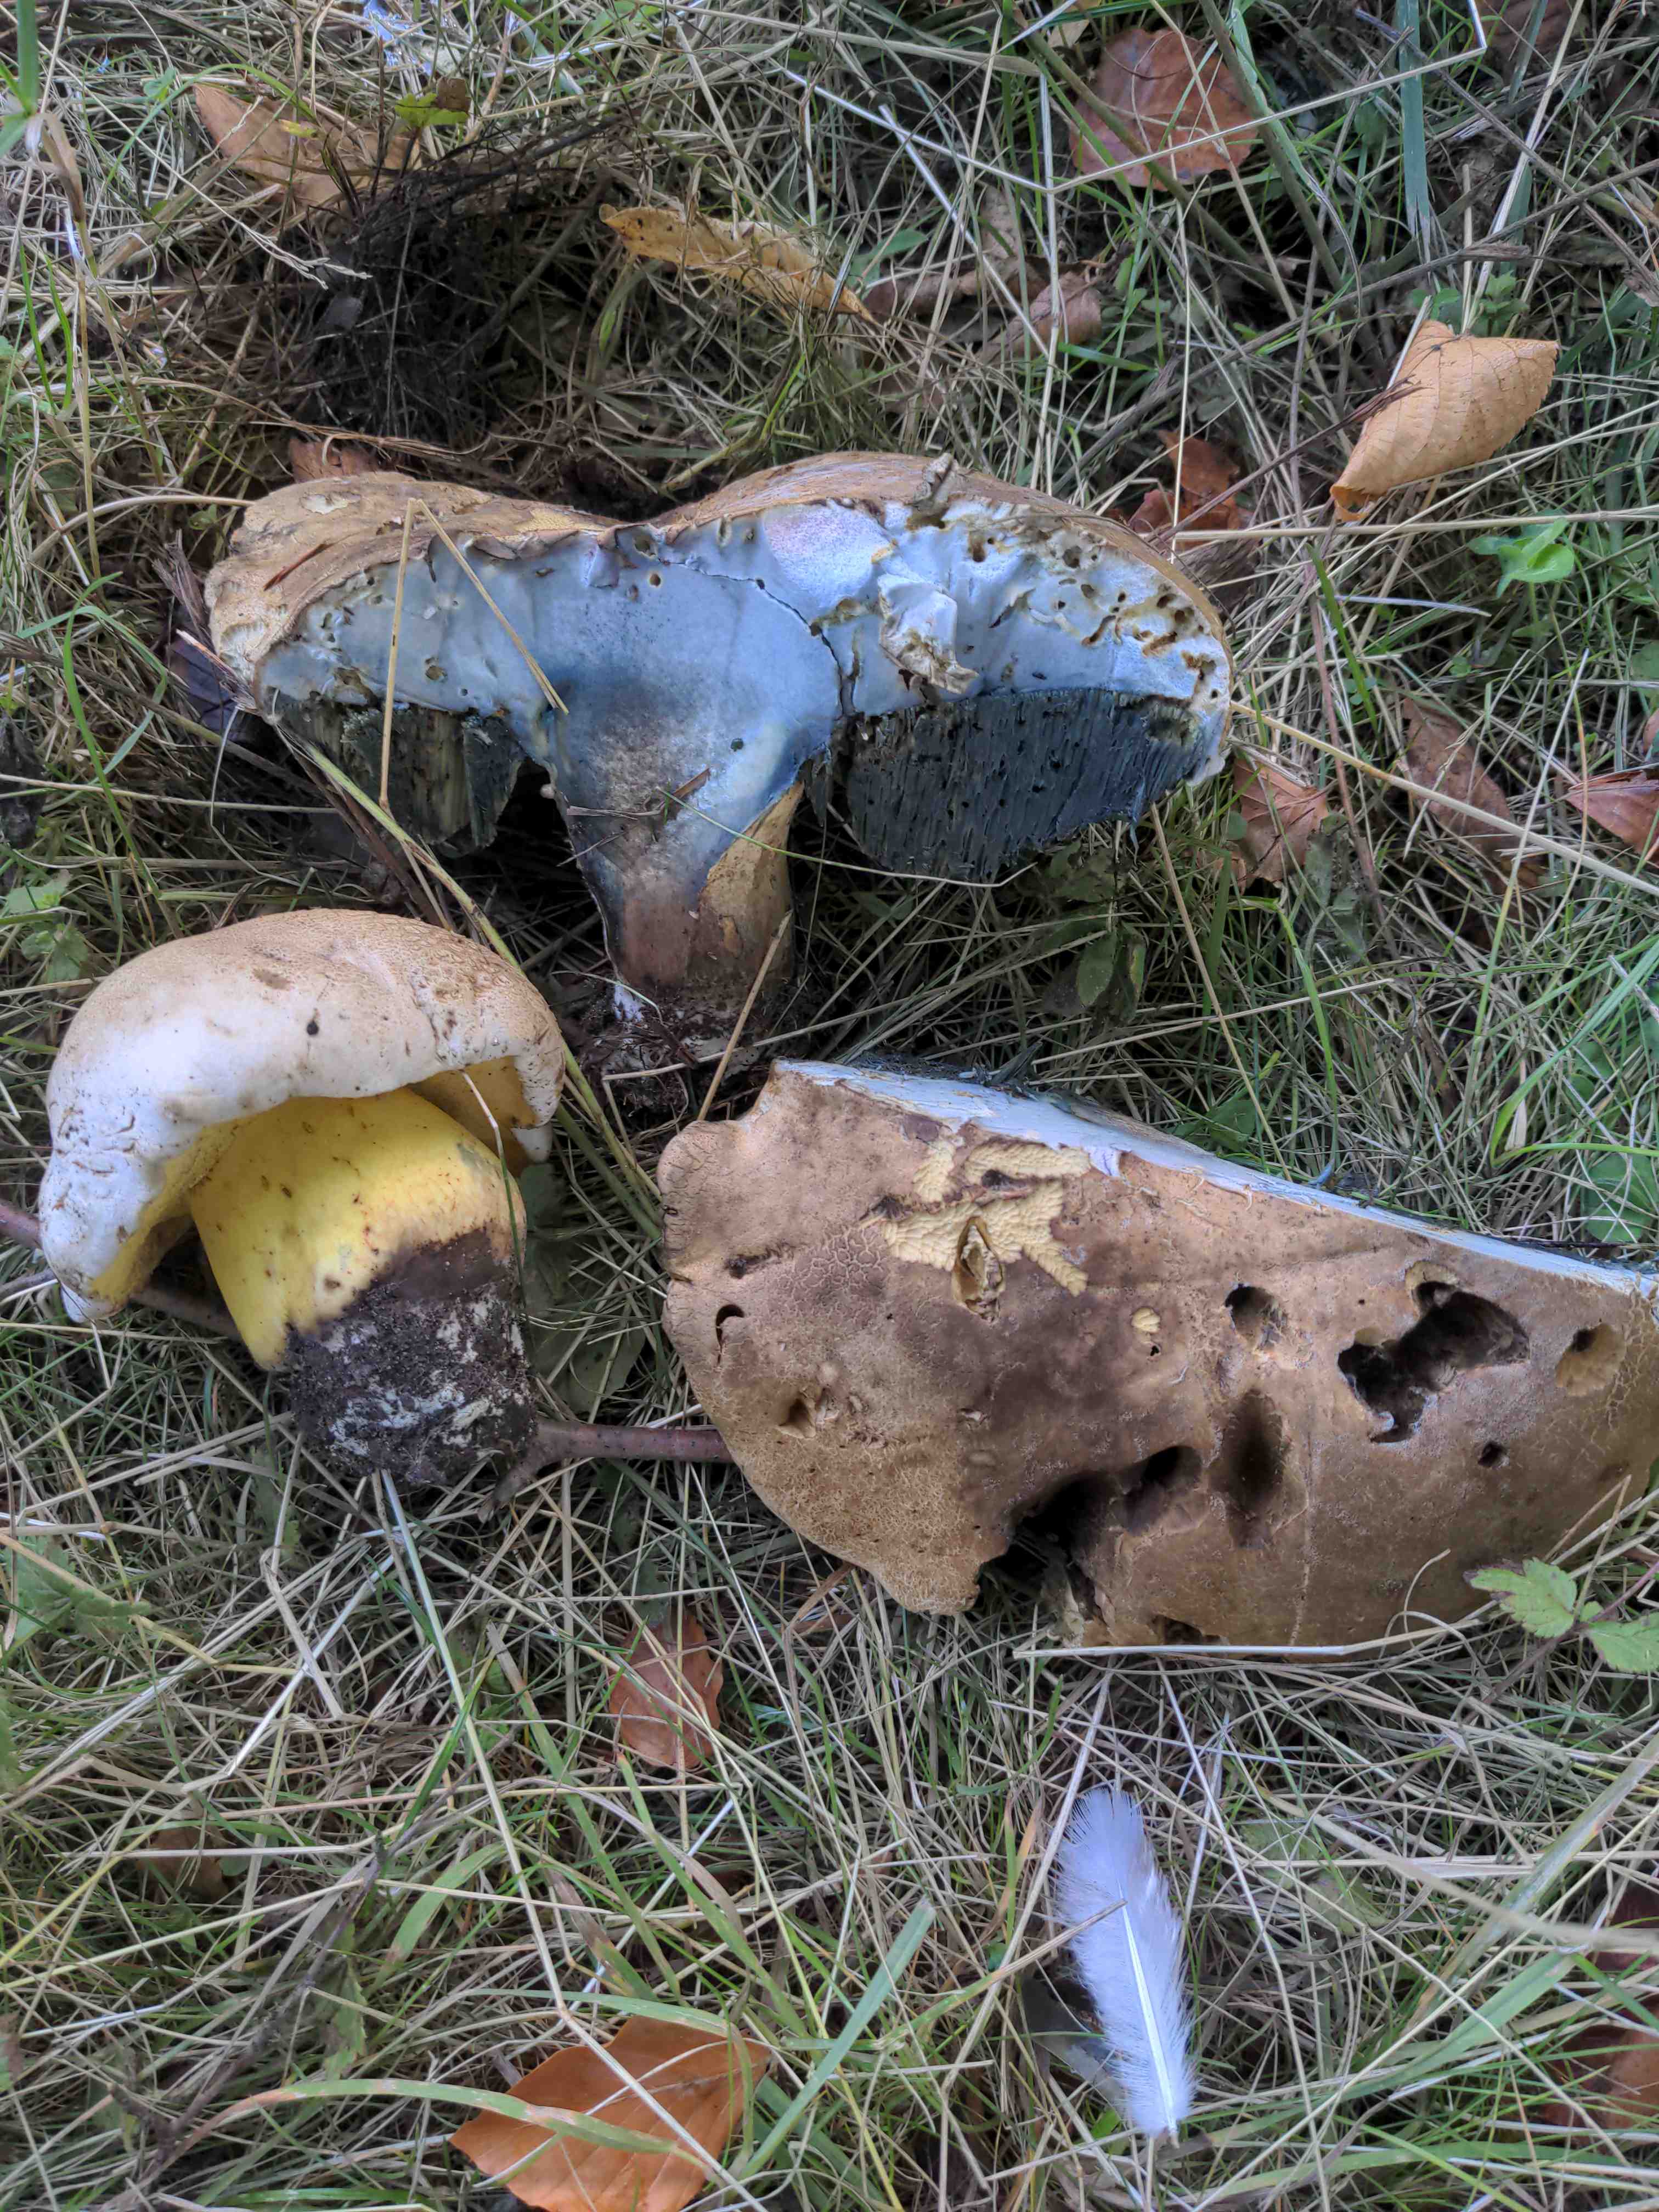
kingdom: Fungi
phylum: Basidiomycota
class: Agaricomycetes
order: Boletales
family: Boletaceae
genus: Caloboletus
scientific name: Caloboletus radicans
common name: rod-rørhat
